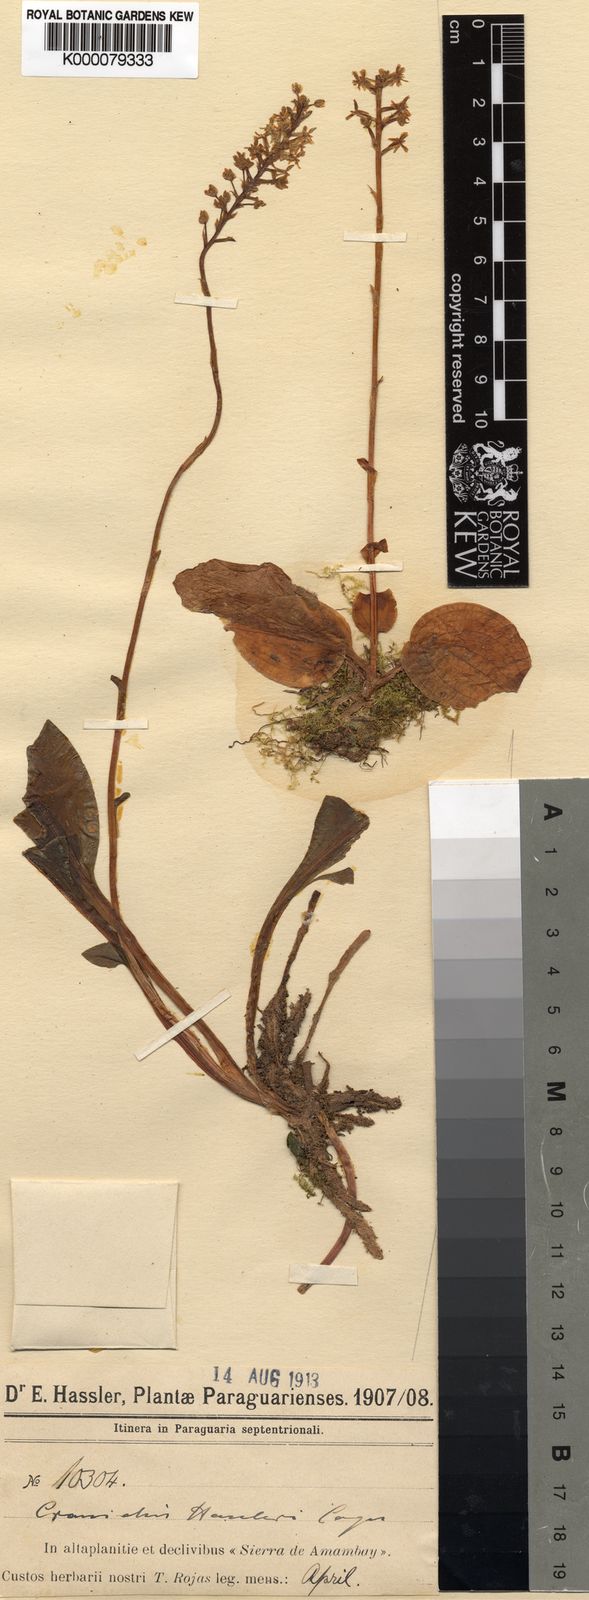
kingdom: Plantae
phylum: Tracheophyta
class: Liliopsida
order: Asparagales
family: Orchidaceae
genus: Cranichis
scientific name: Cranichis hassleri
